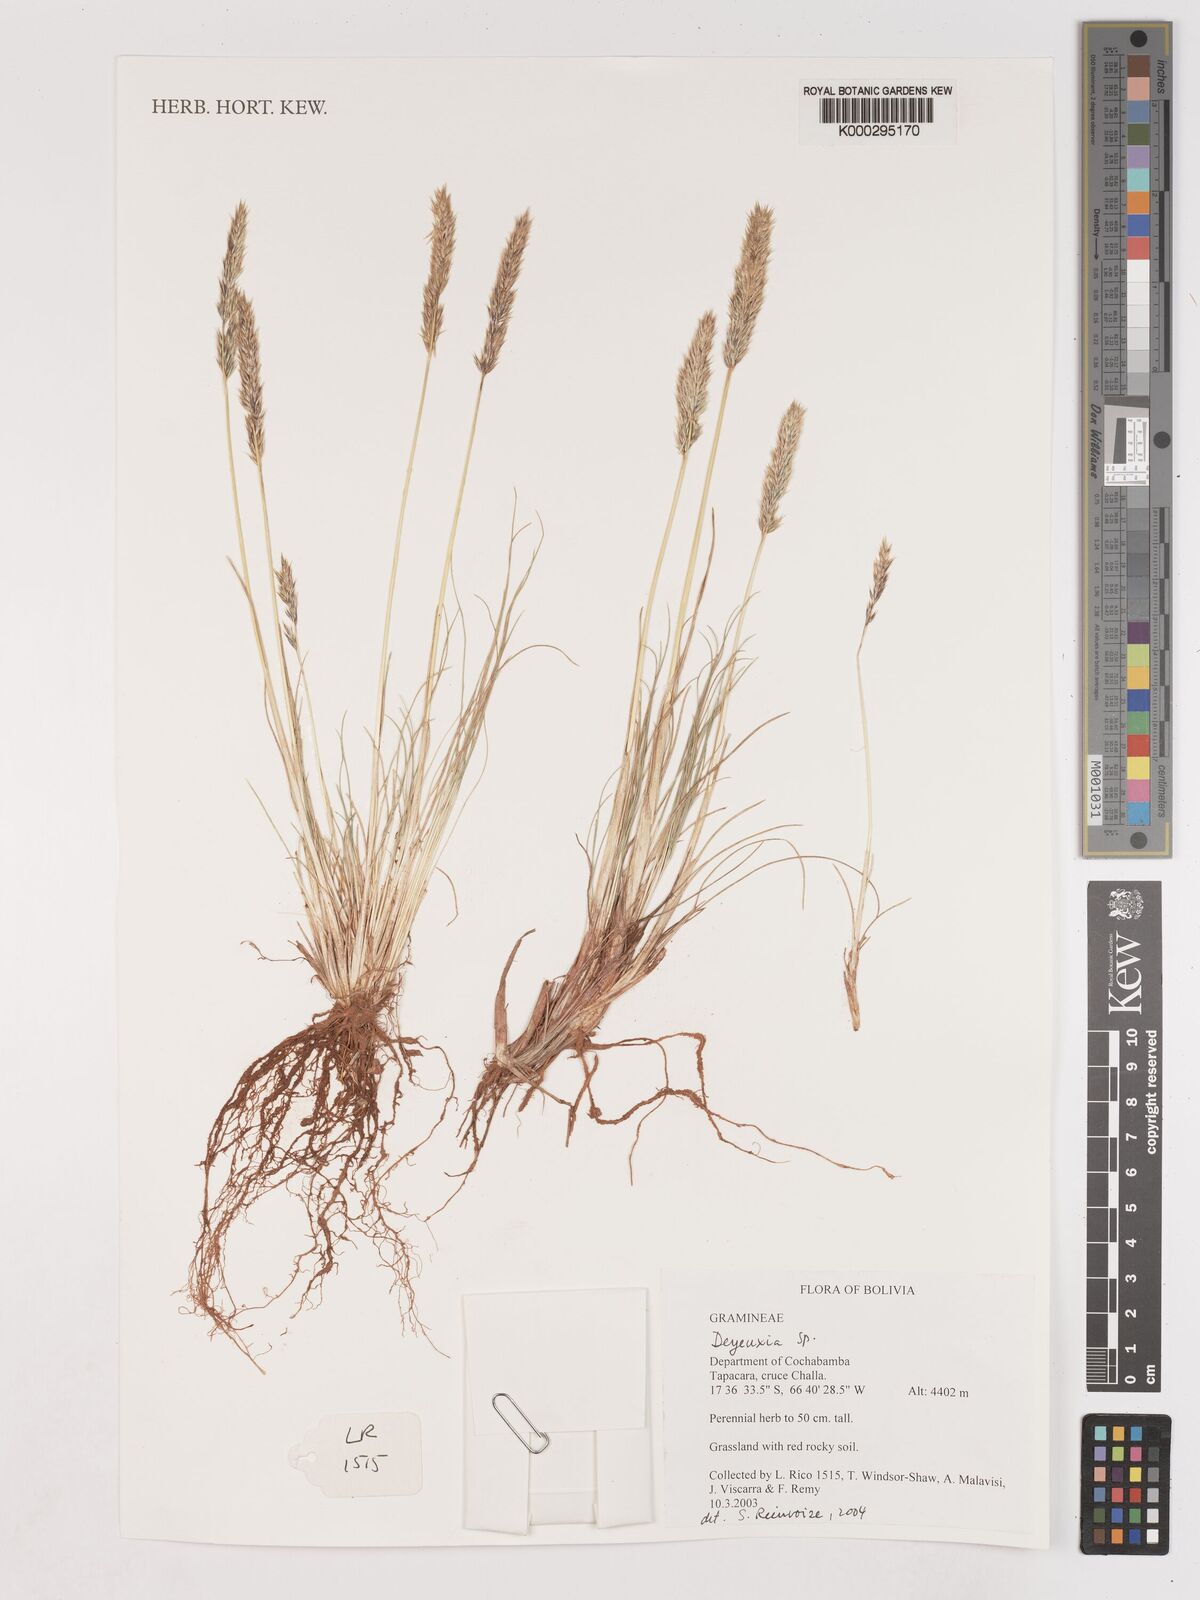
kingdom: Plantae
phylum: Tracheophyta
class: Liliopsida
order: Poales
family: Poaceae
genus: Calamagrostis
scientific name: Calamagrostis
